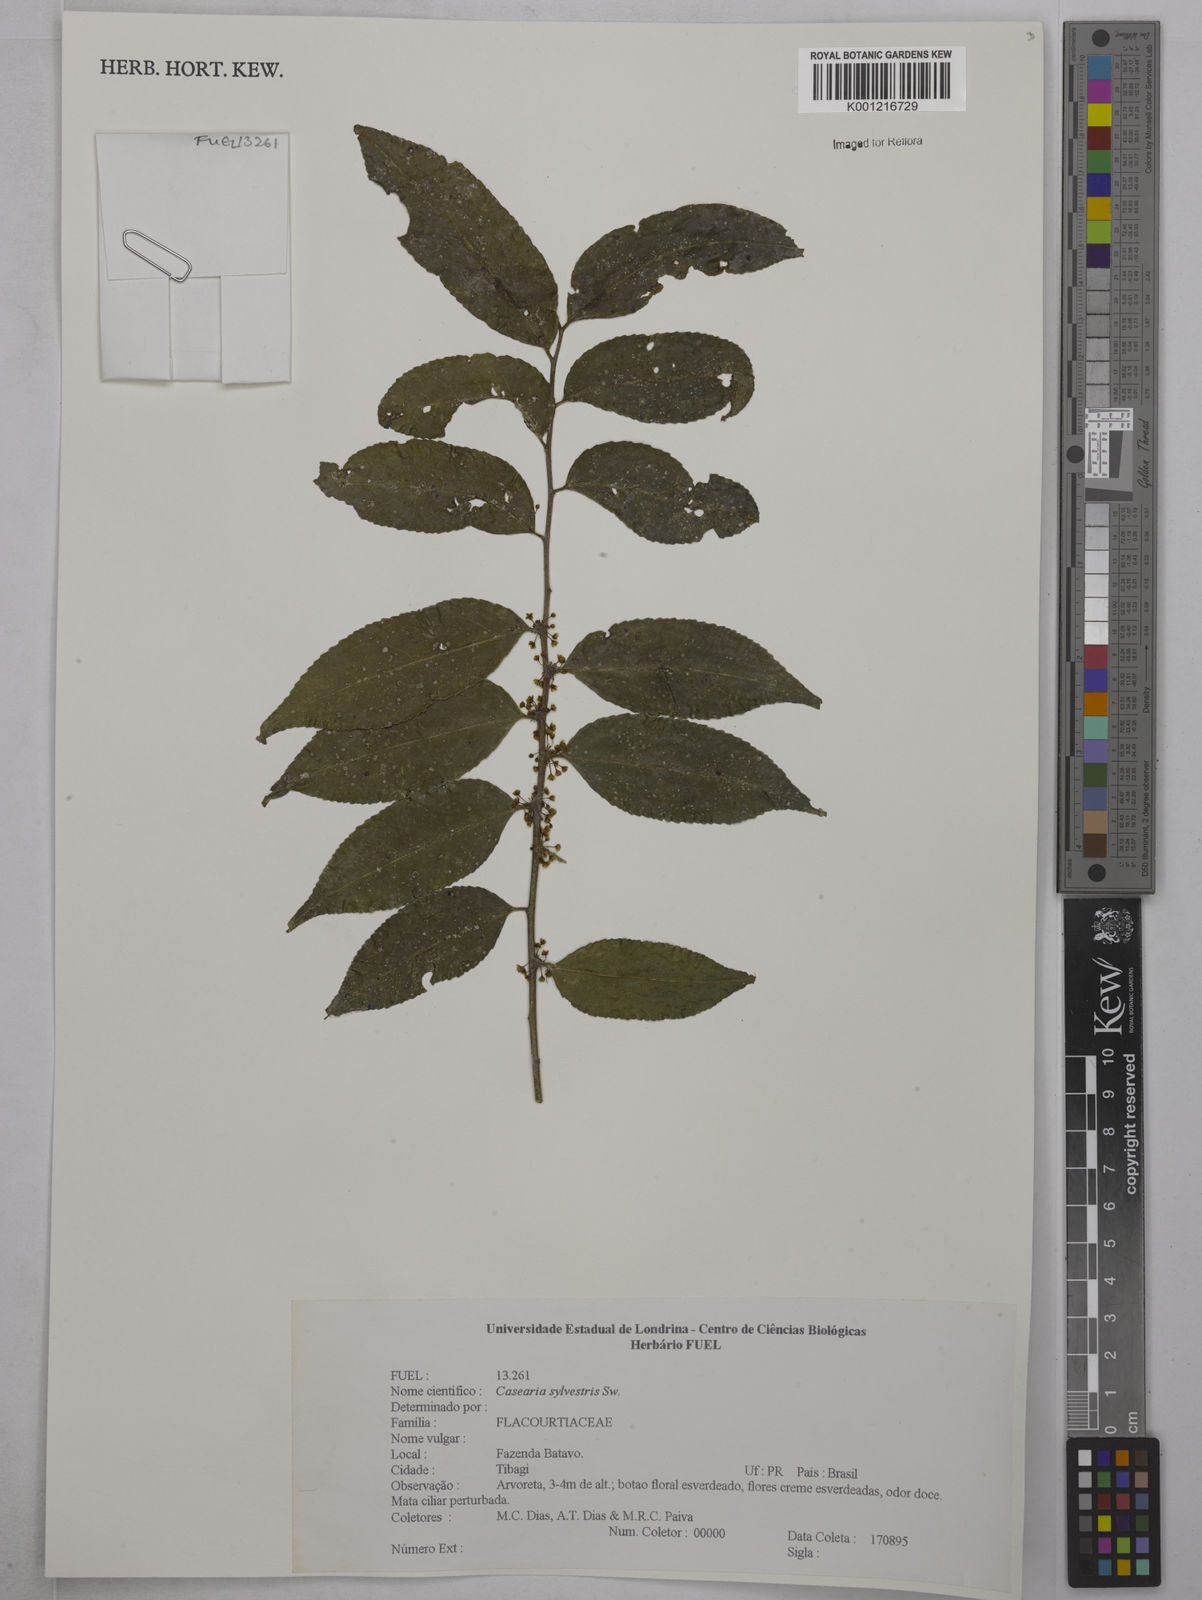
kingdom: Plantae
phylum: Tracheophyta
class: Magnoliopsida
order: Malpighiales
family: Salicaceae
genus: Casearia
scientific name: Casearia sylvestris
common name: Wild sage
